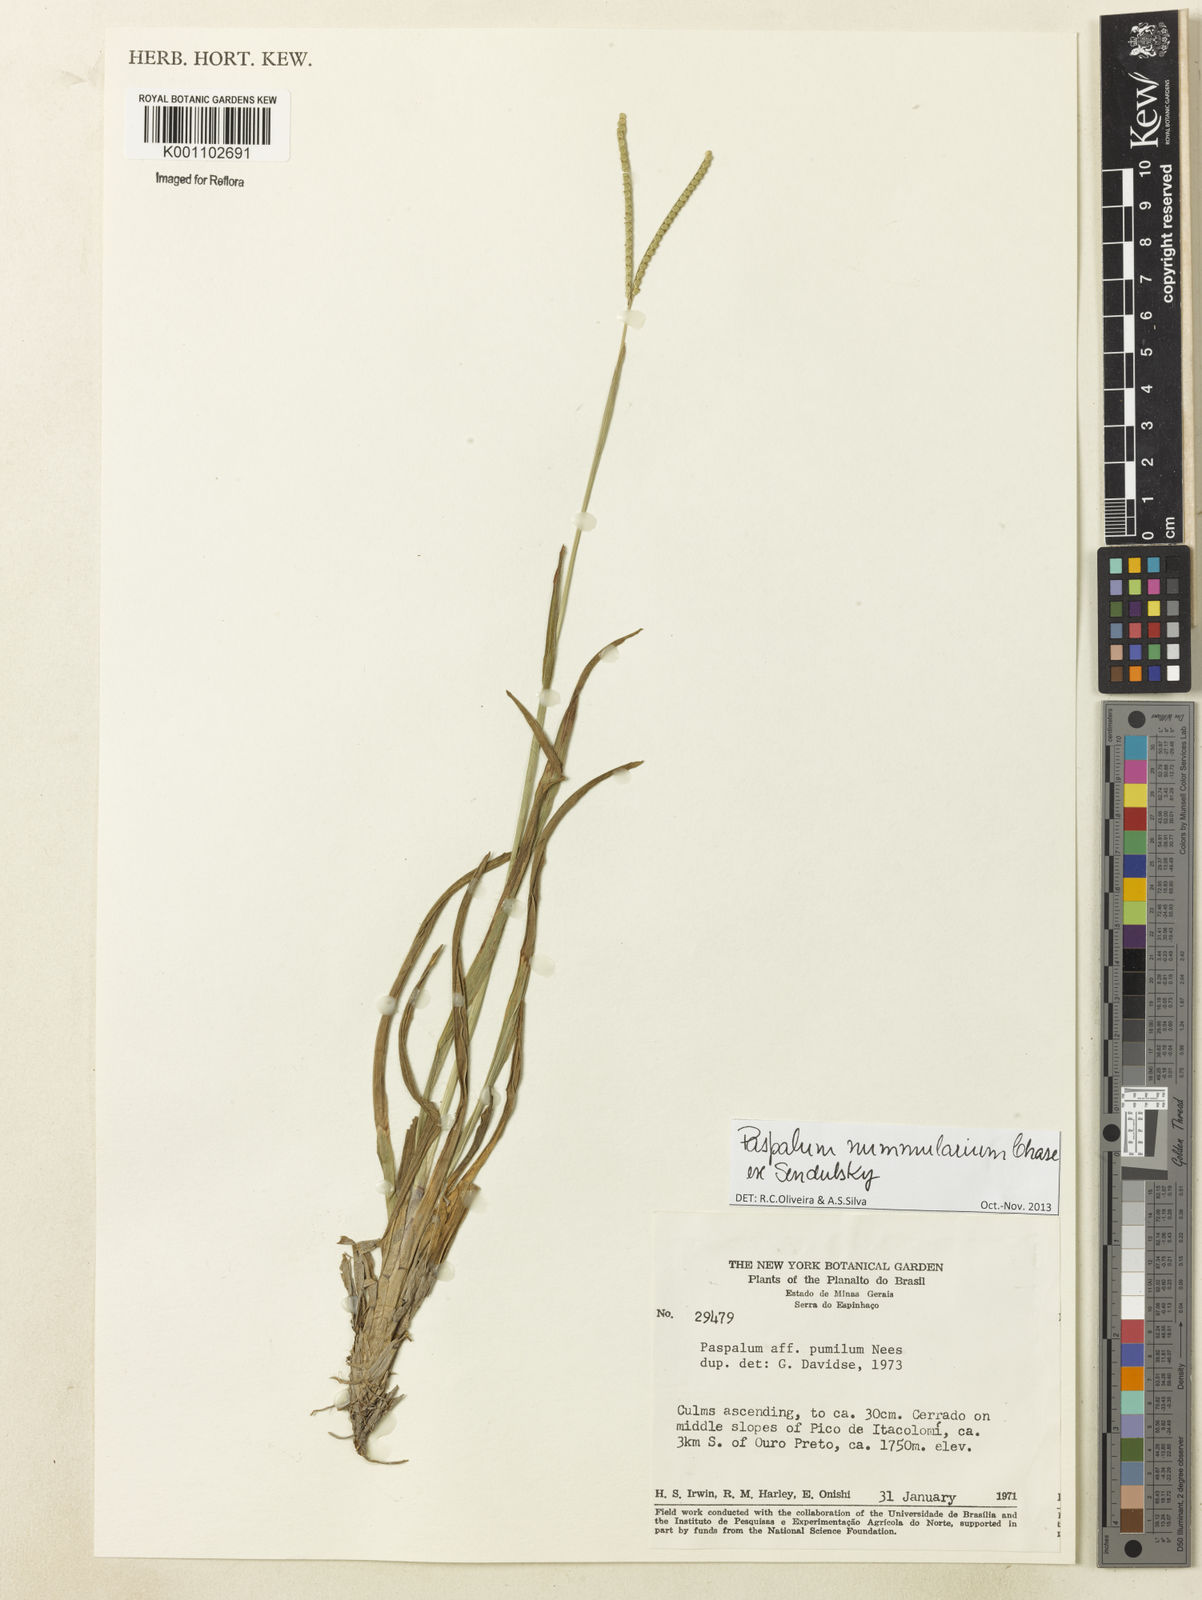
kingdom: Plantae
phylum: Tracheophyta
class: Liliopsida
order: Poales
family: Poaceae
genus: Paspalum
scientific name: Paspalum nummularium
